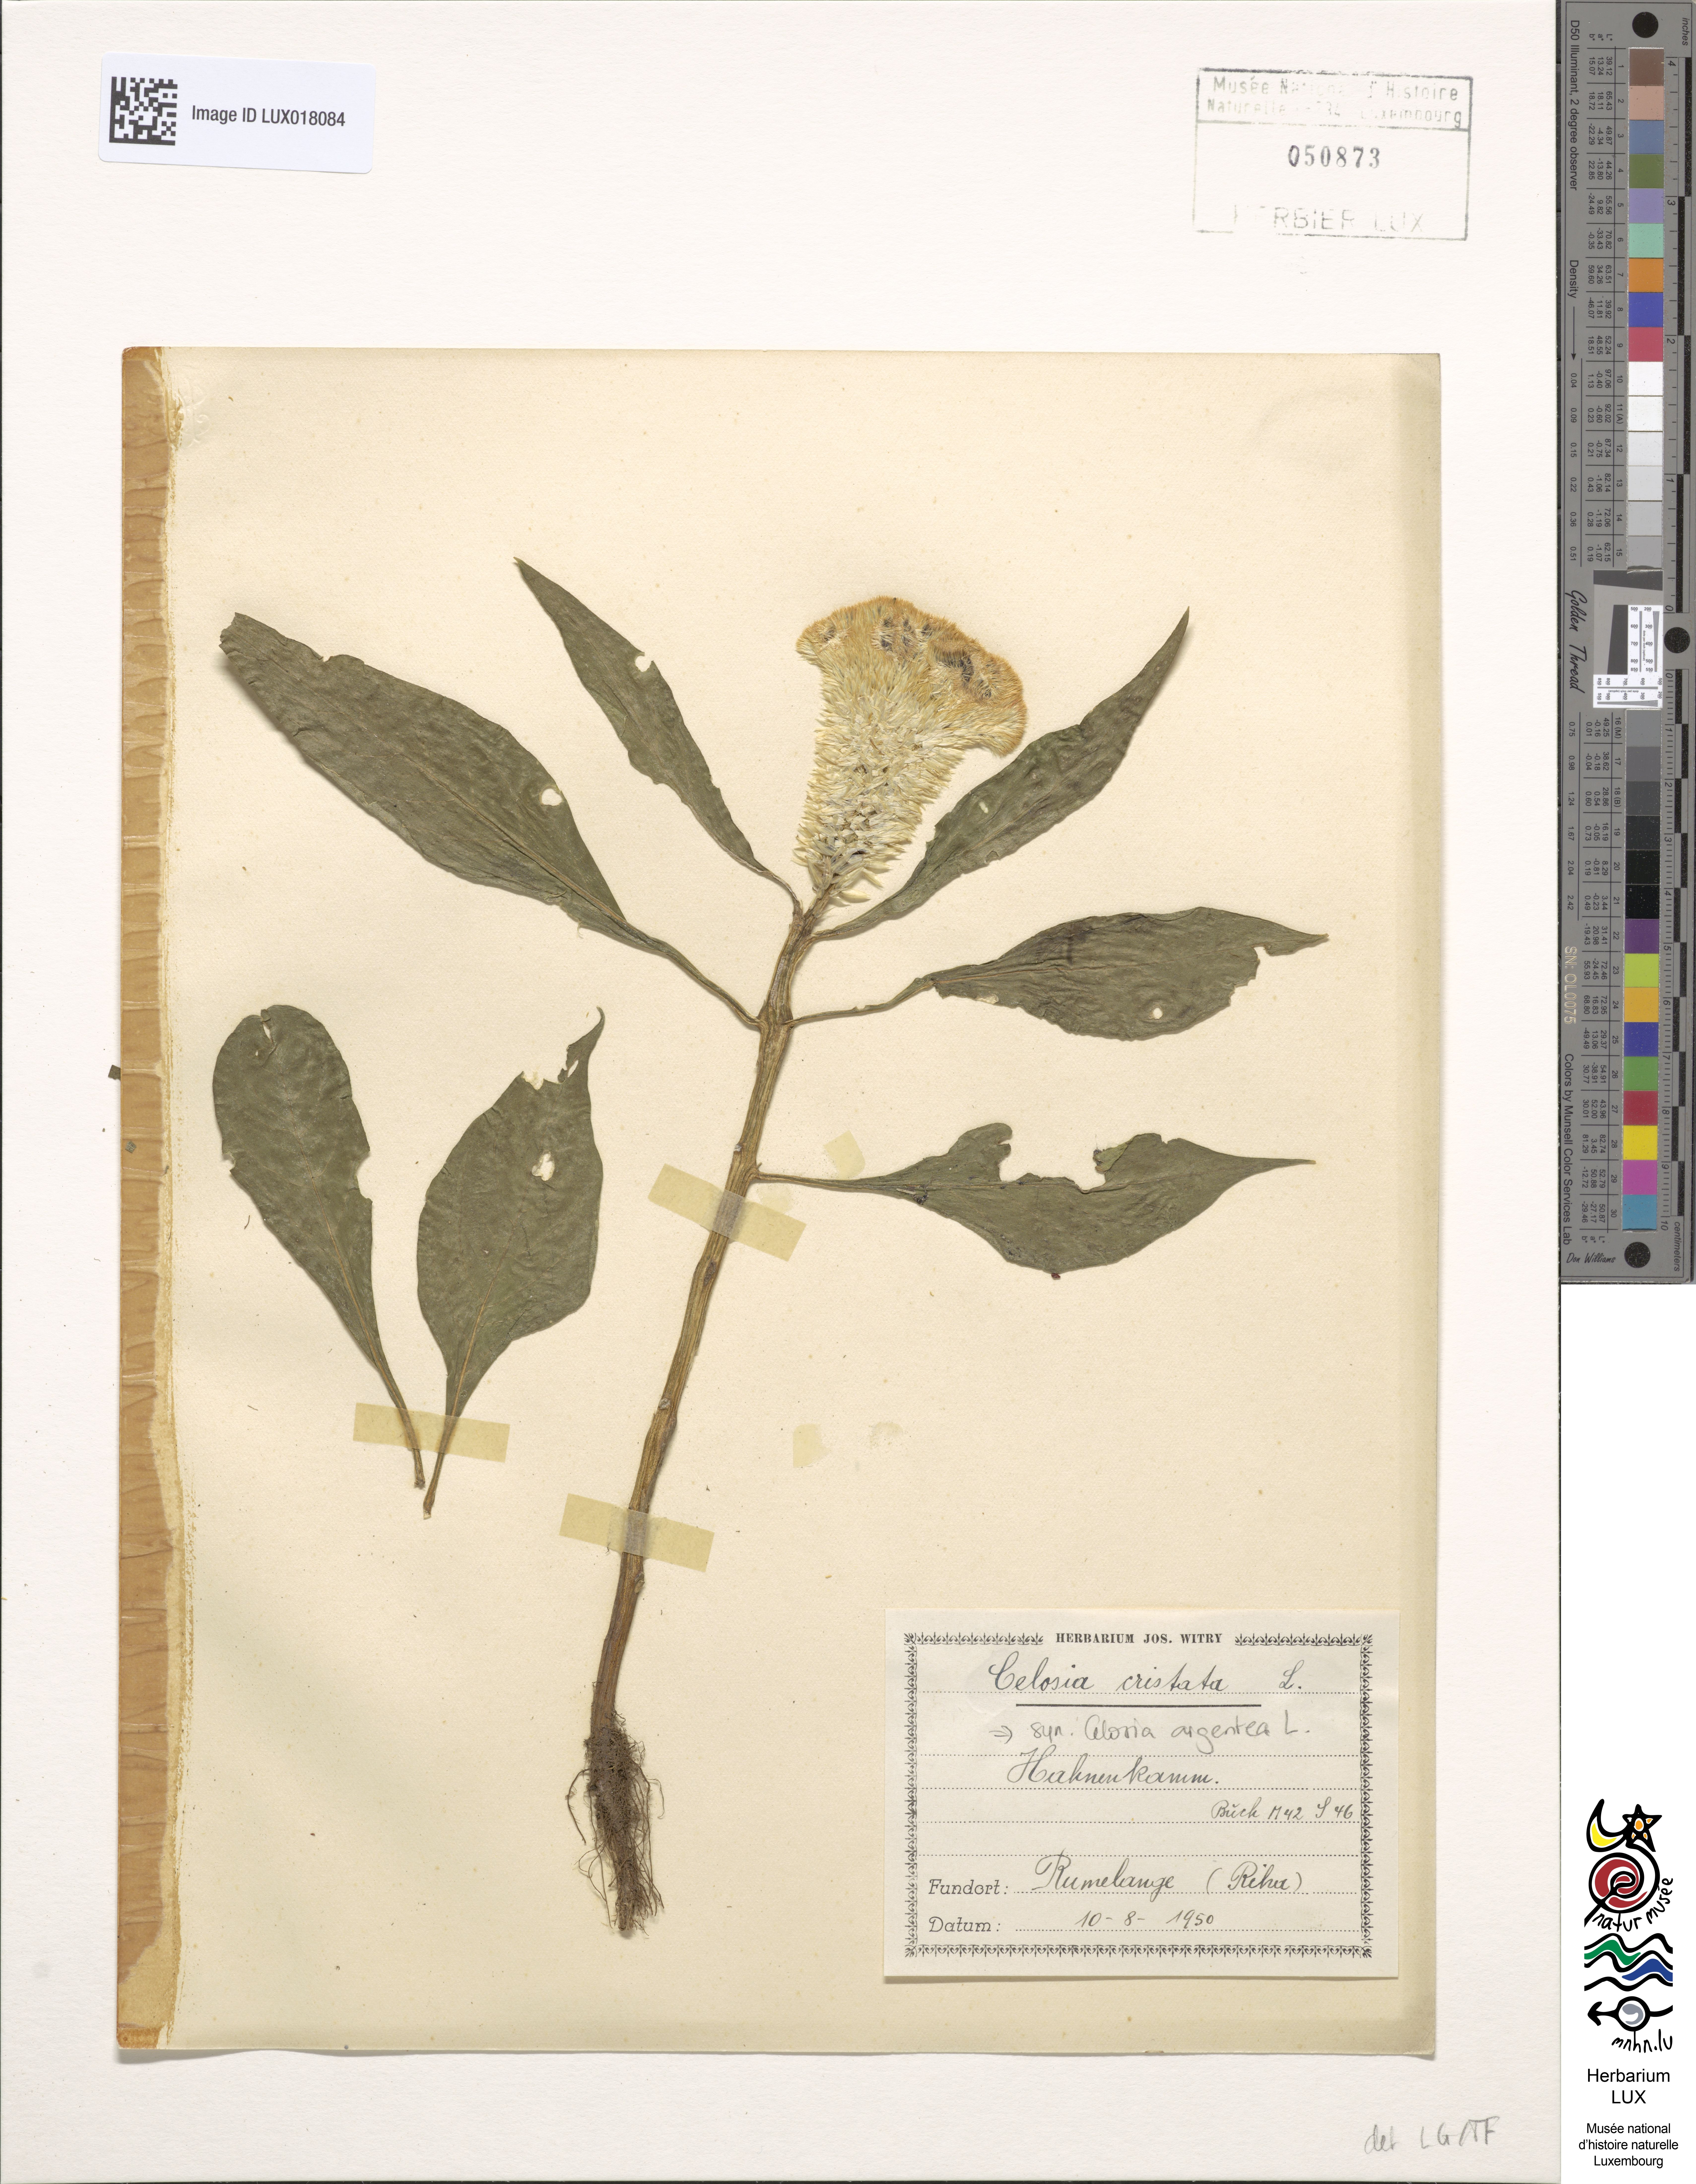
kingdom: Plantae
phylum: Tracheophyta
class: Magnoliopsida
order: Caryophyllales
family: Amaranthaceae
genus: Celosia
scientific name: Celosia argentea
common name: Feather cockscomb
